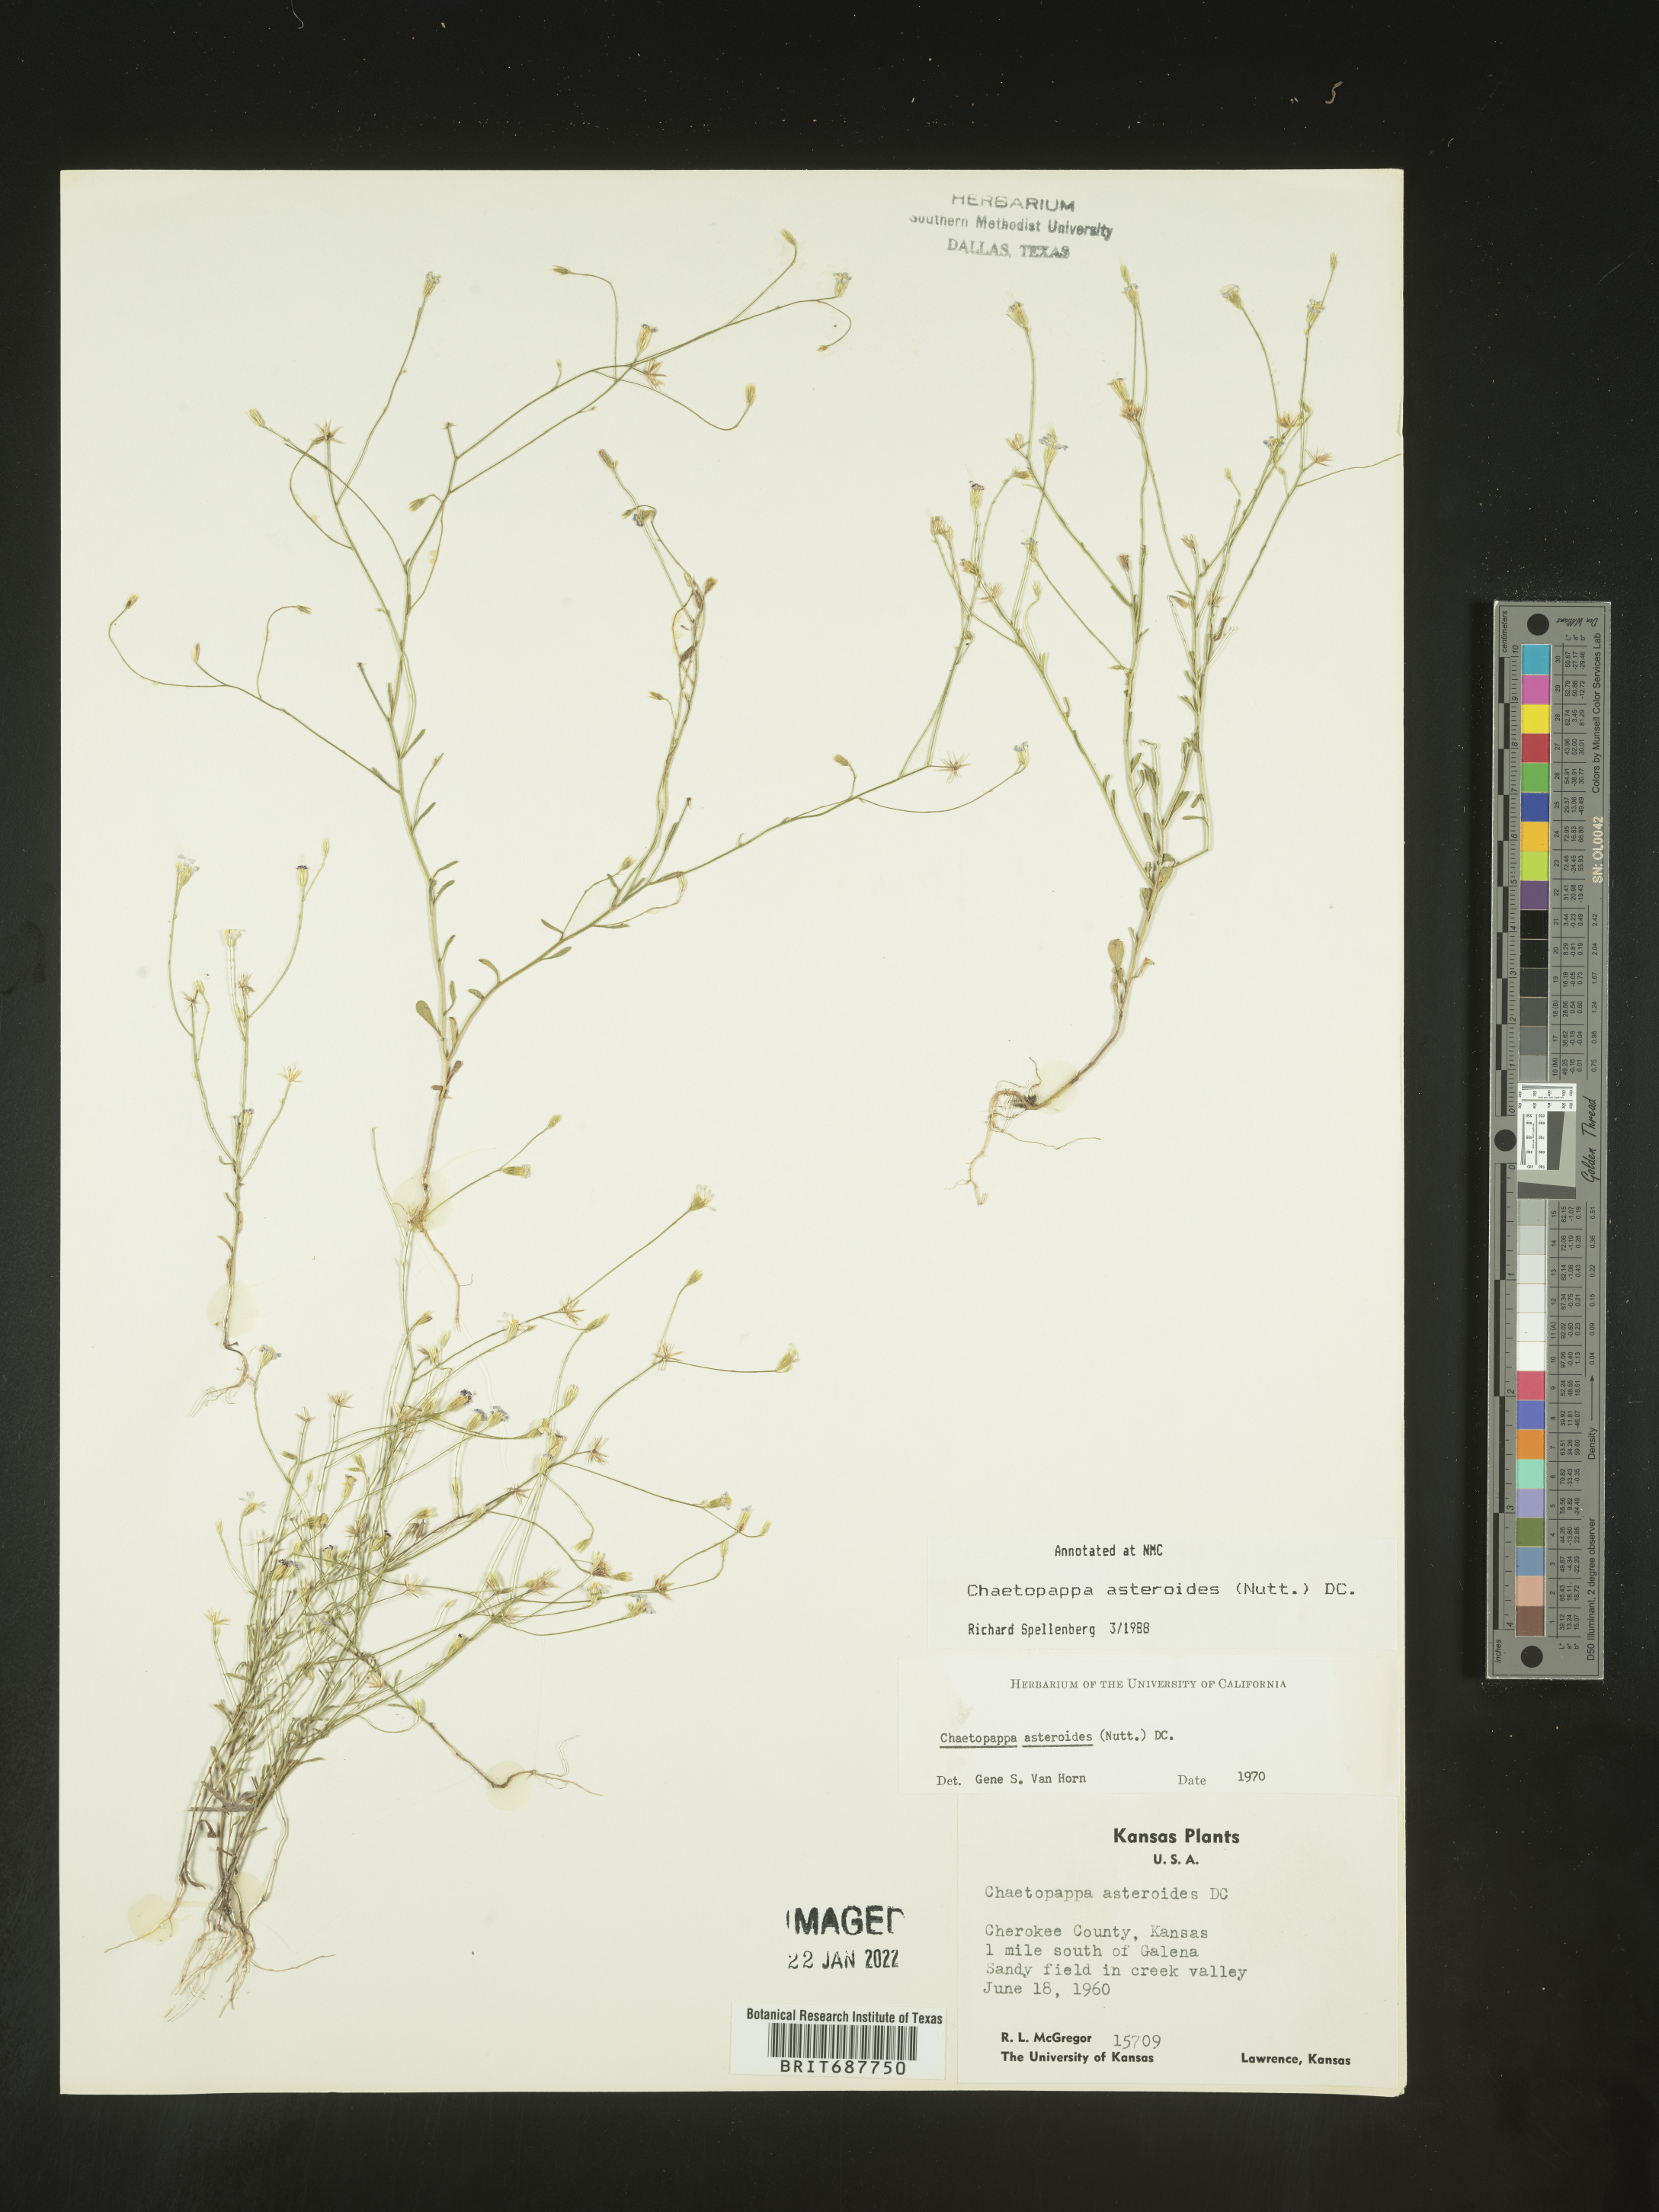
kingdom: Plantae
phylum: Tracheophyta
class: Magnoliopsida
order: Asterales
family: Asteraceae
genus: Chaetopappa
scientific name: Chaetopappa asteroides
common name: Tiny lazy daisy
